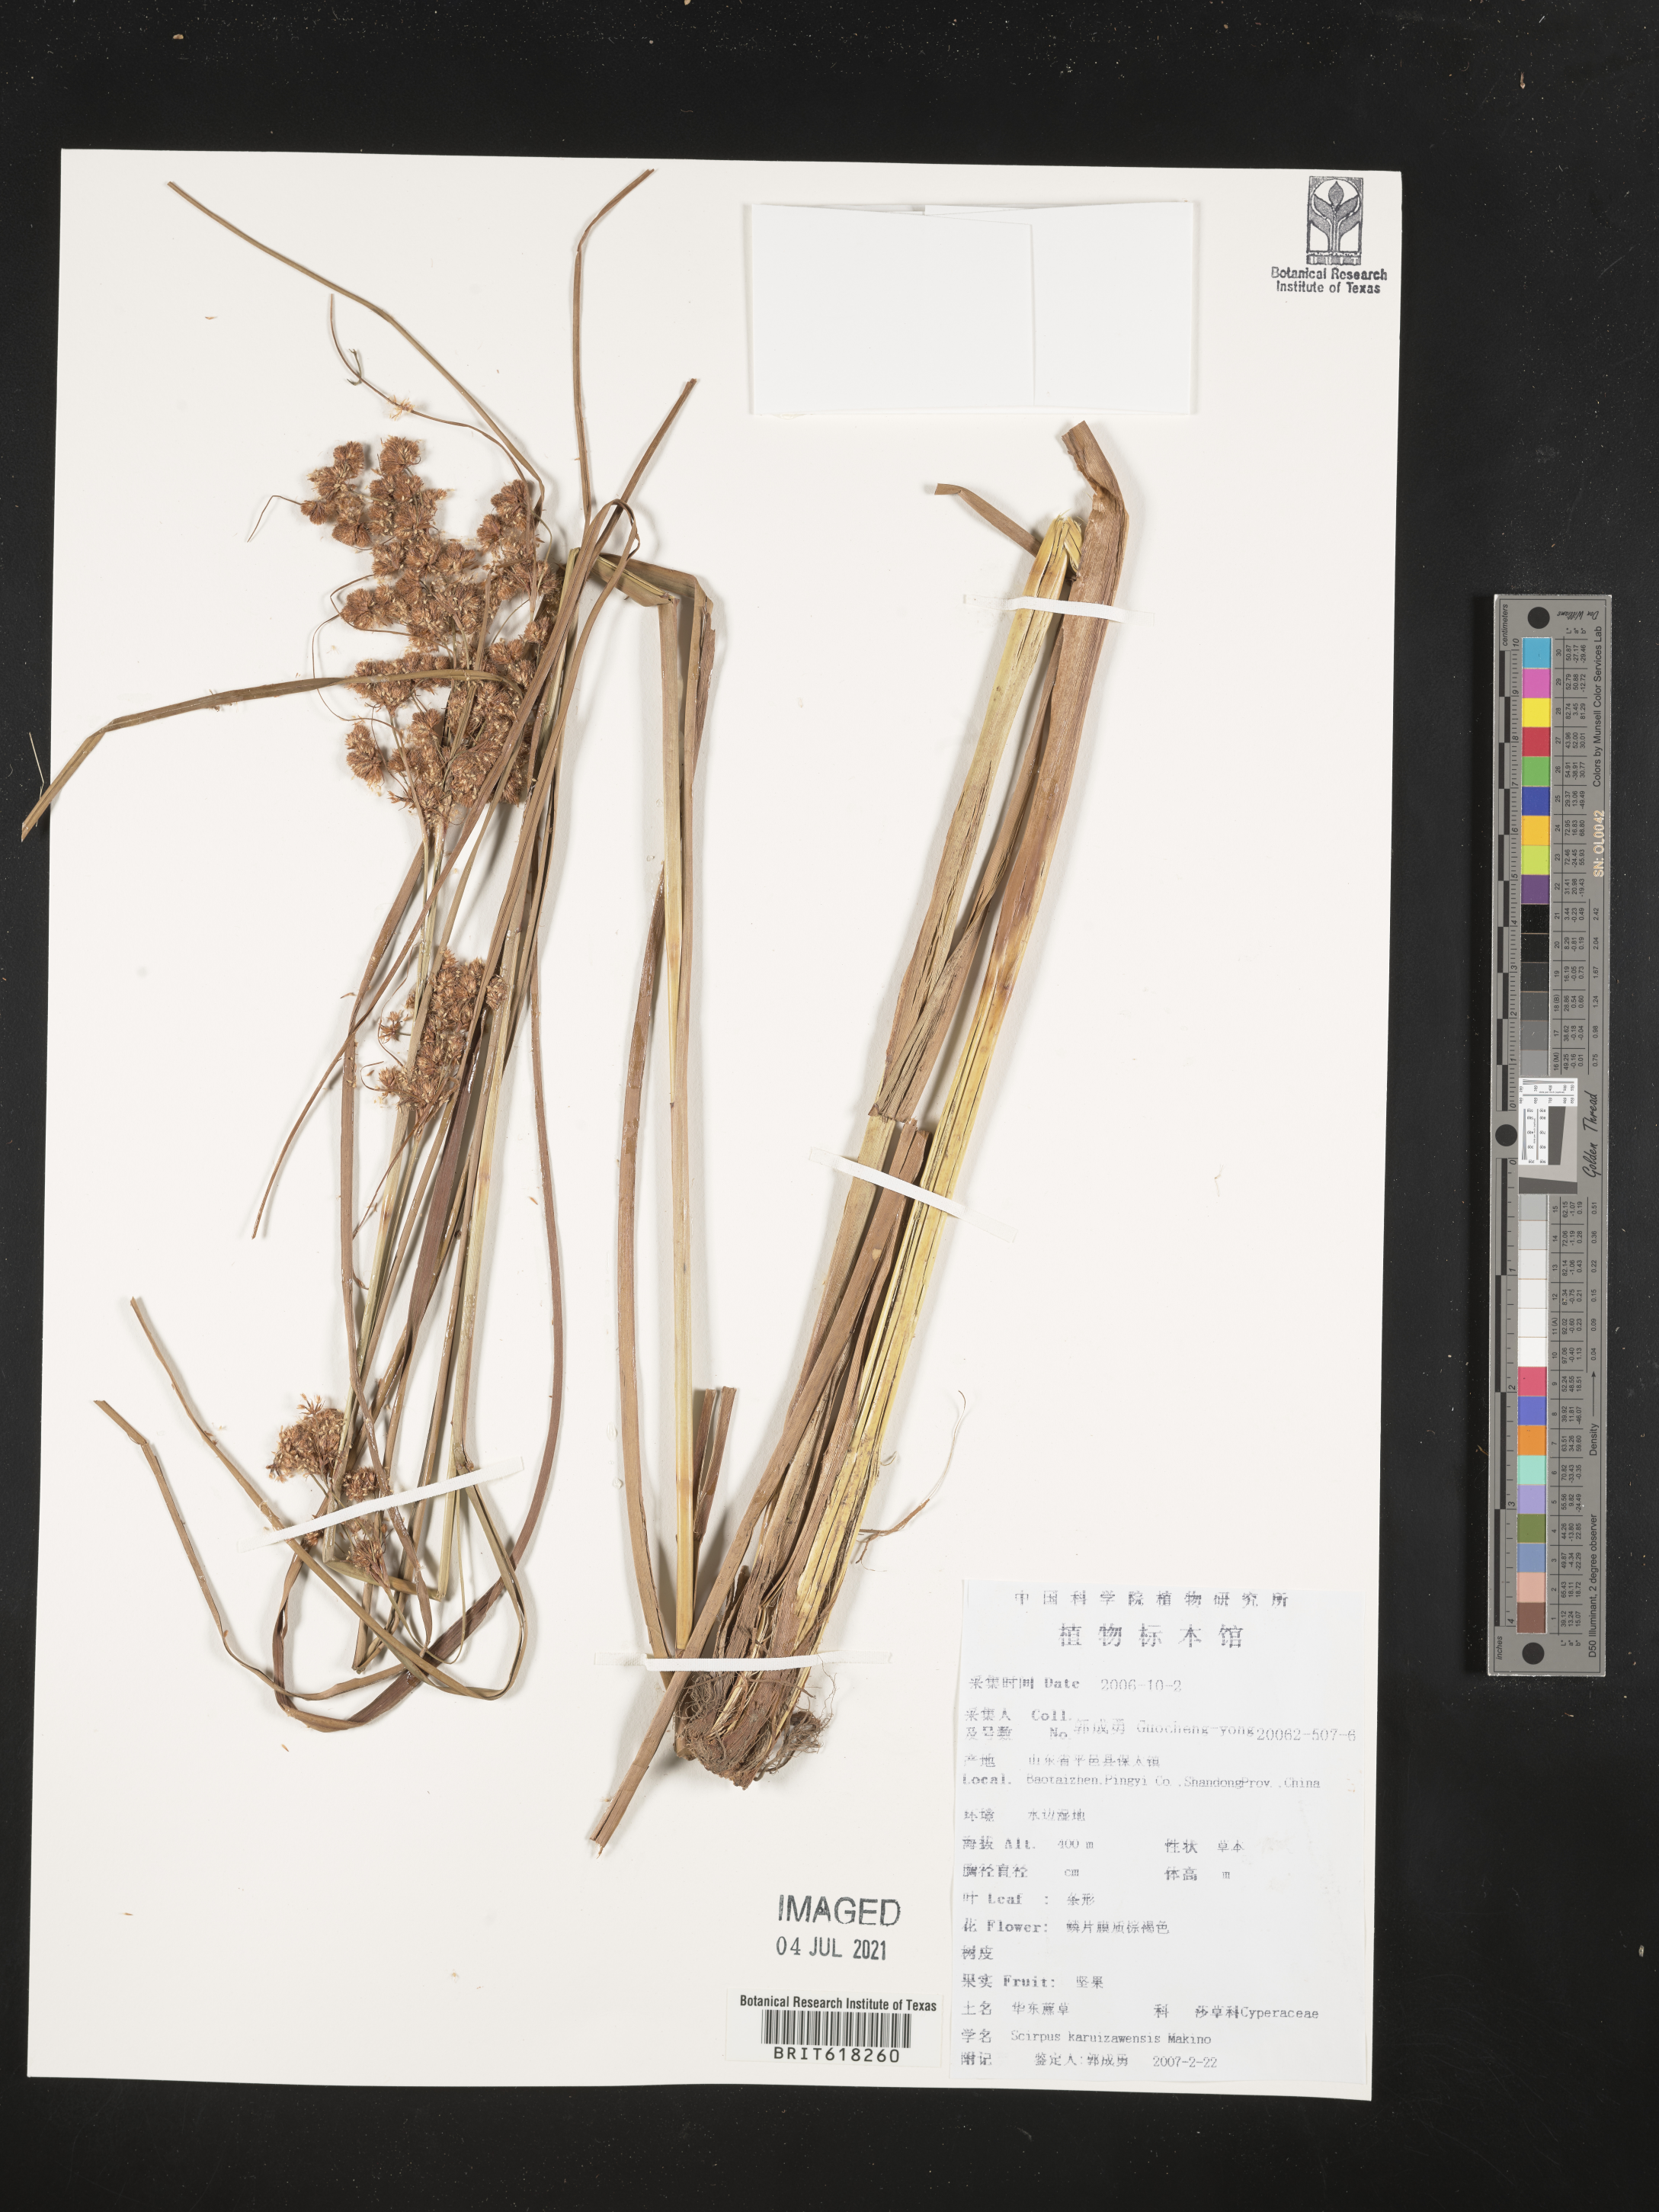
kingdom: Plantae
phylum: Tracheophyta
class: Liliopsida
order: Poales
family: Cyperaceae
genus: Scirpus
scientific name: Scirpus karuisawensis
